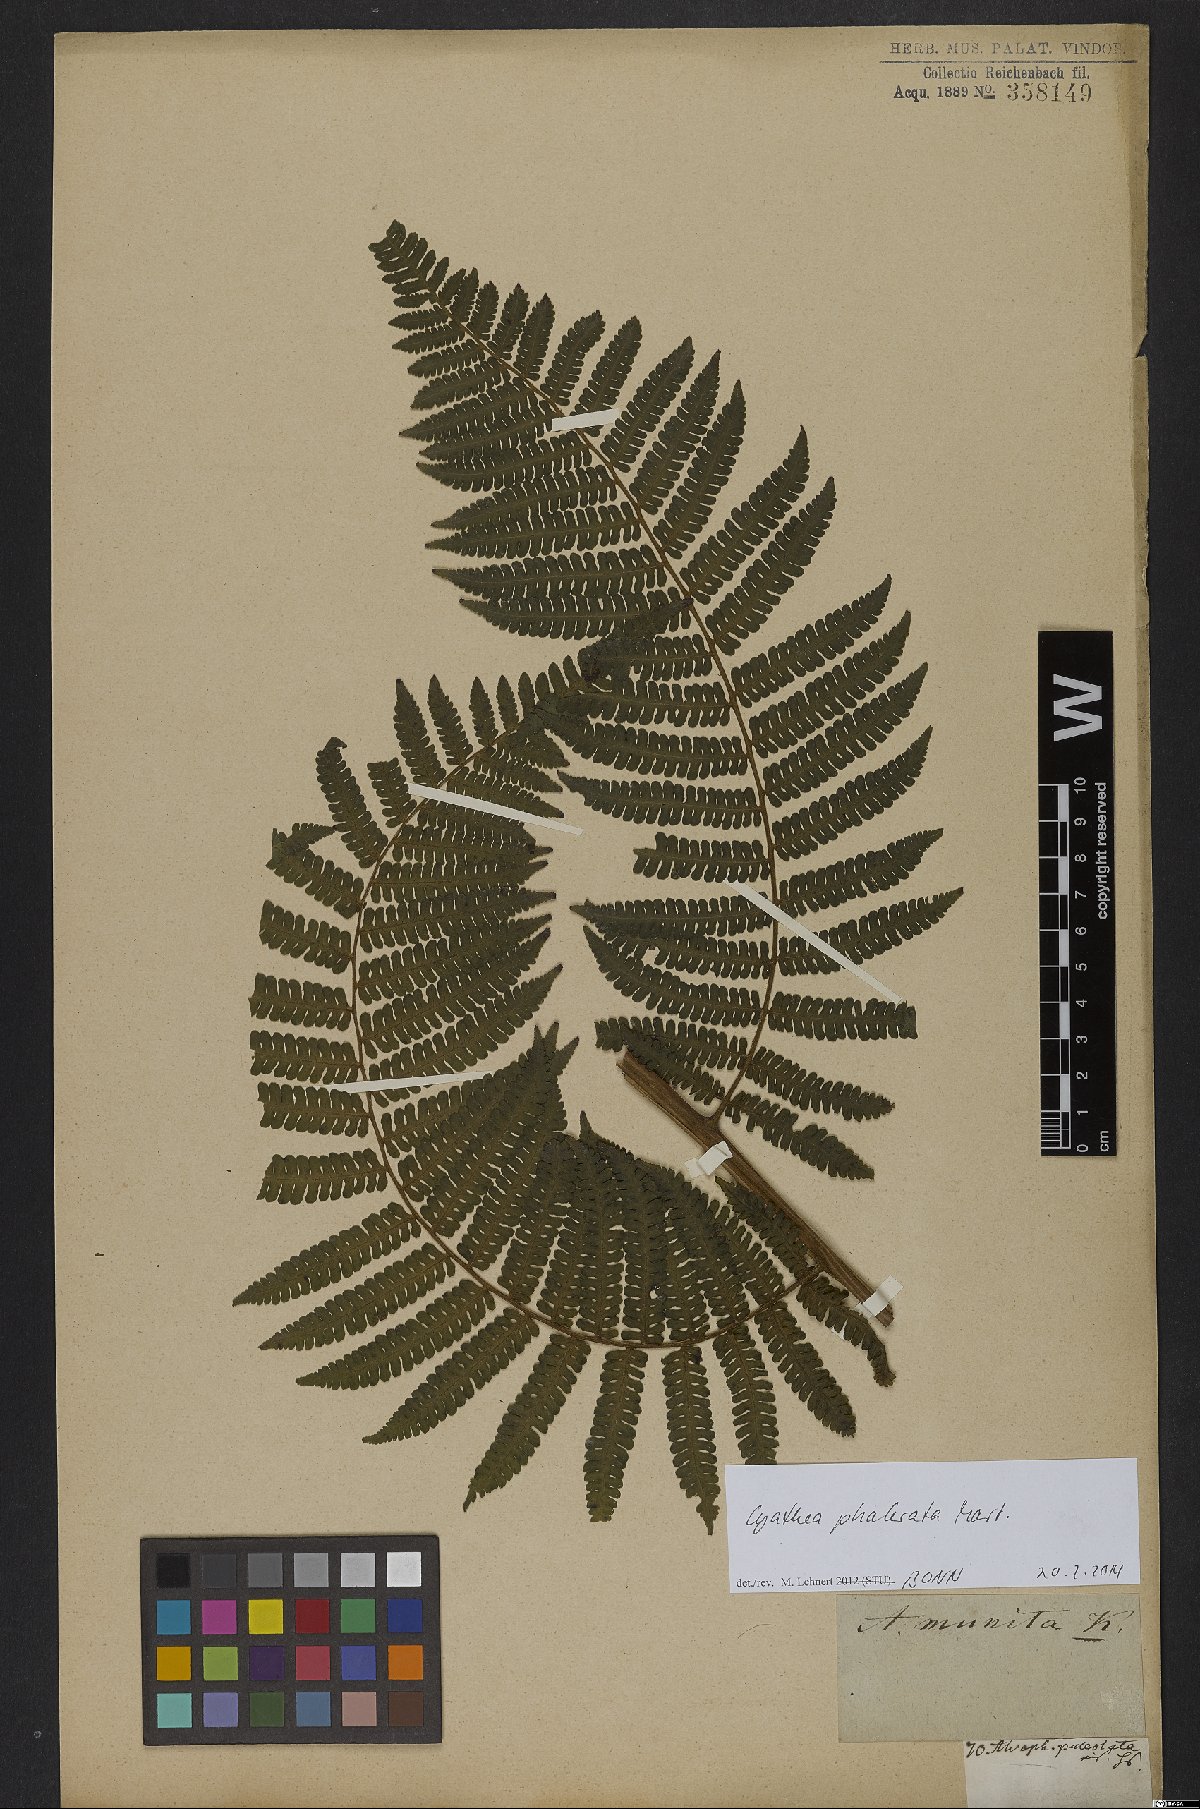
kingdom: Plantae
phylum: Tracheophyta
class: Polypodiopsida
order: Cyatheales
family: Cyatheaceae
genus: Cyathea
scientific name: Cyathea phalerata
